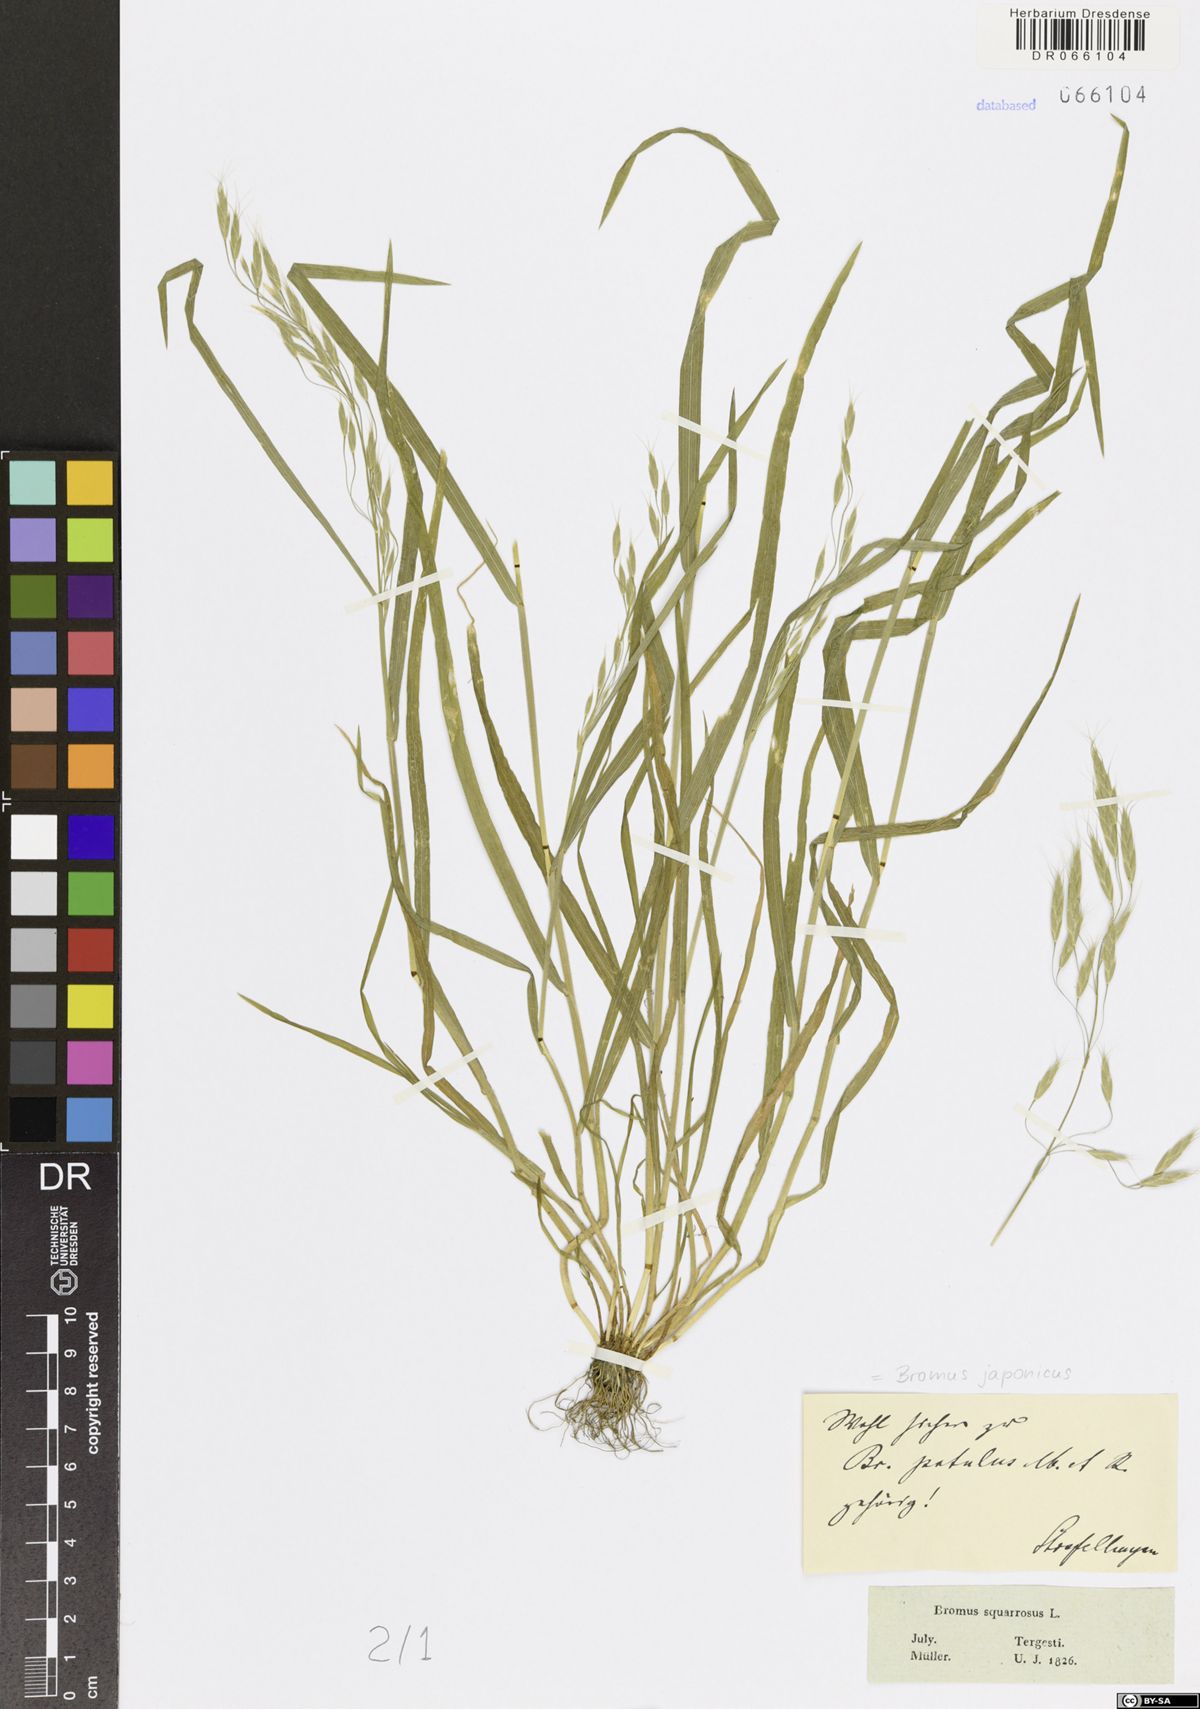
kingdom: Plantae
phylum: Tracheophyta
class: Liliopsida
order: Poales
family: Poaceae
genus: Bromus
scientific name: Bromus japonicus
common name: Japanese brome
